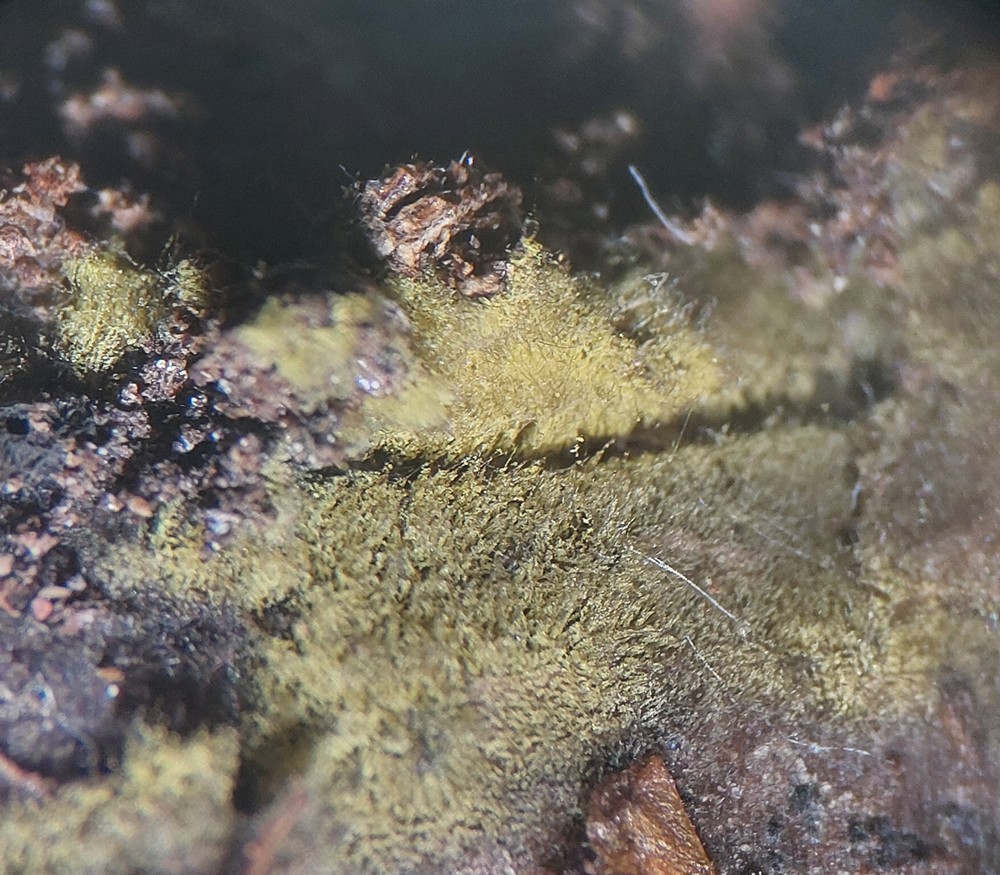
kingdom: Fungi
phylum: Ascomycota
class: Dothideomycetes
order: Tubeufiales
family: Tubeufiaceae
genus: Tubeufia
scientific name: Tubeufia cerea
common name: gulbrun tyksækkrukke
